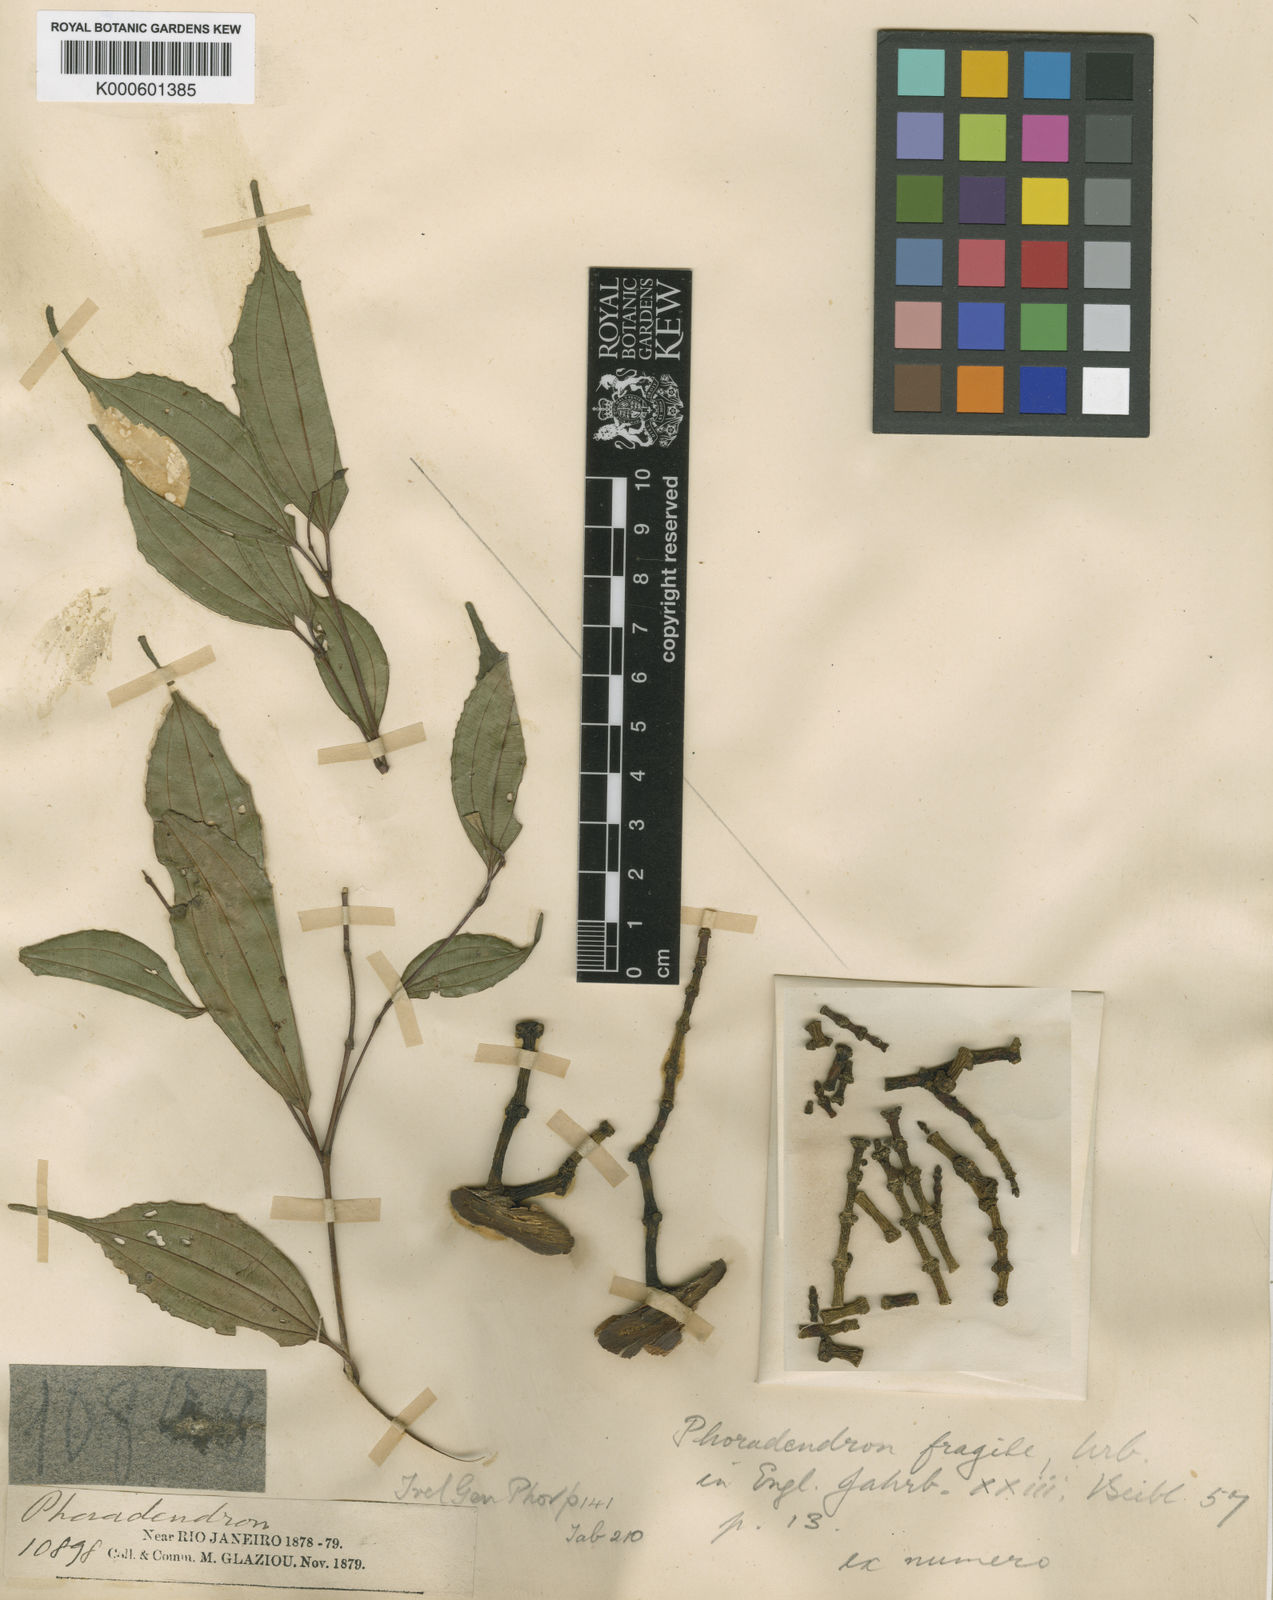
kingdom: Plantae
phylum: Tracheophyta
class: Magnoliopsida
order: Santalales
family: Viscaceae
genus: Phoradendron
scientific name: Phoradendron fragile
